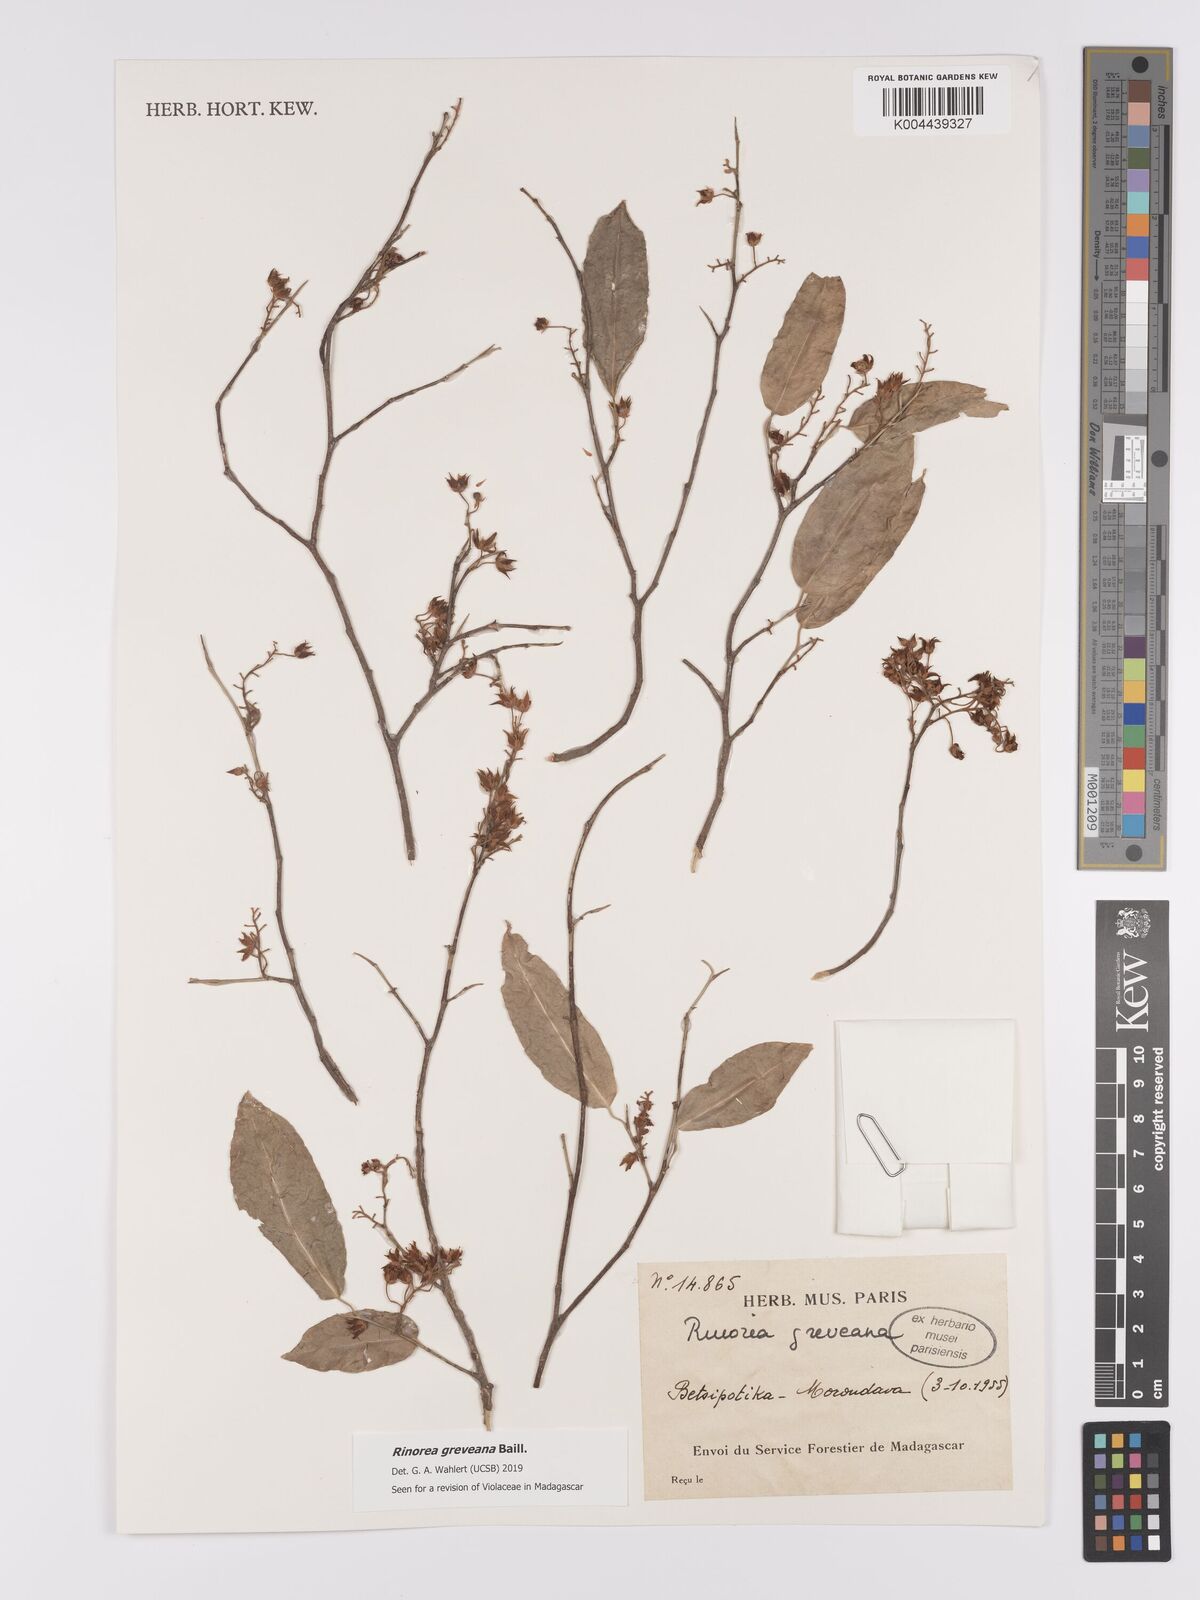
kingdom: Plantae
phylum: Tracheophyta
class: Magnoliopsida
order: Malpighiales
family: Violaceae
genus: Rinorea
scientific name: Rinorea greveana
